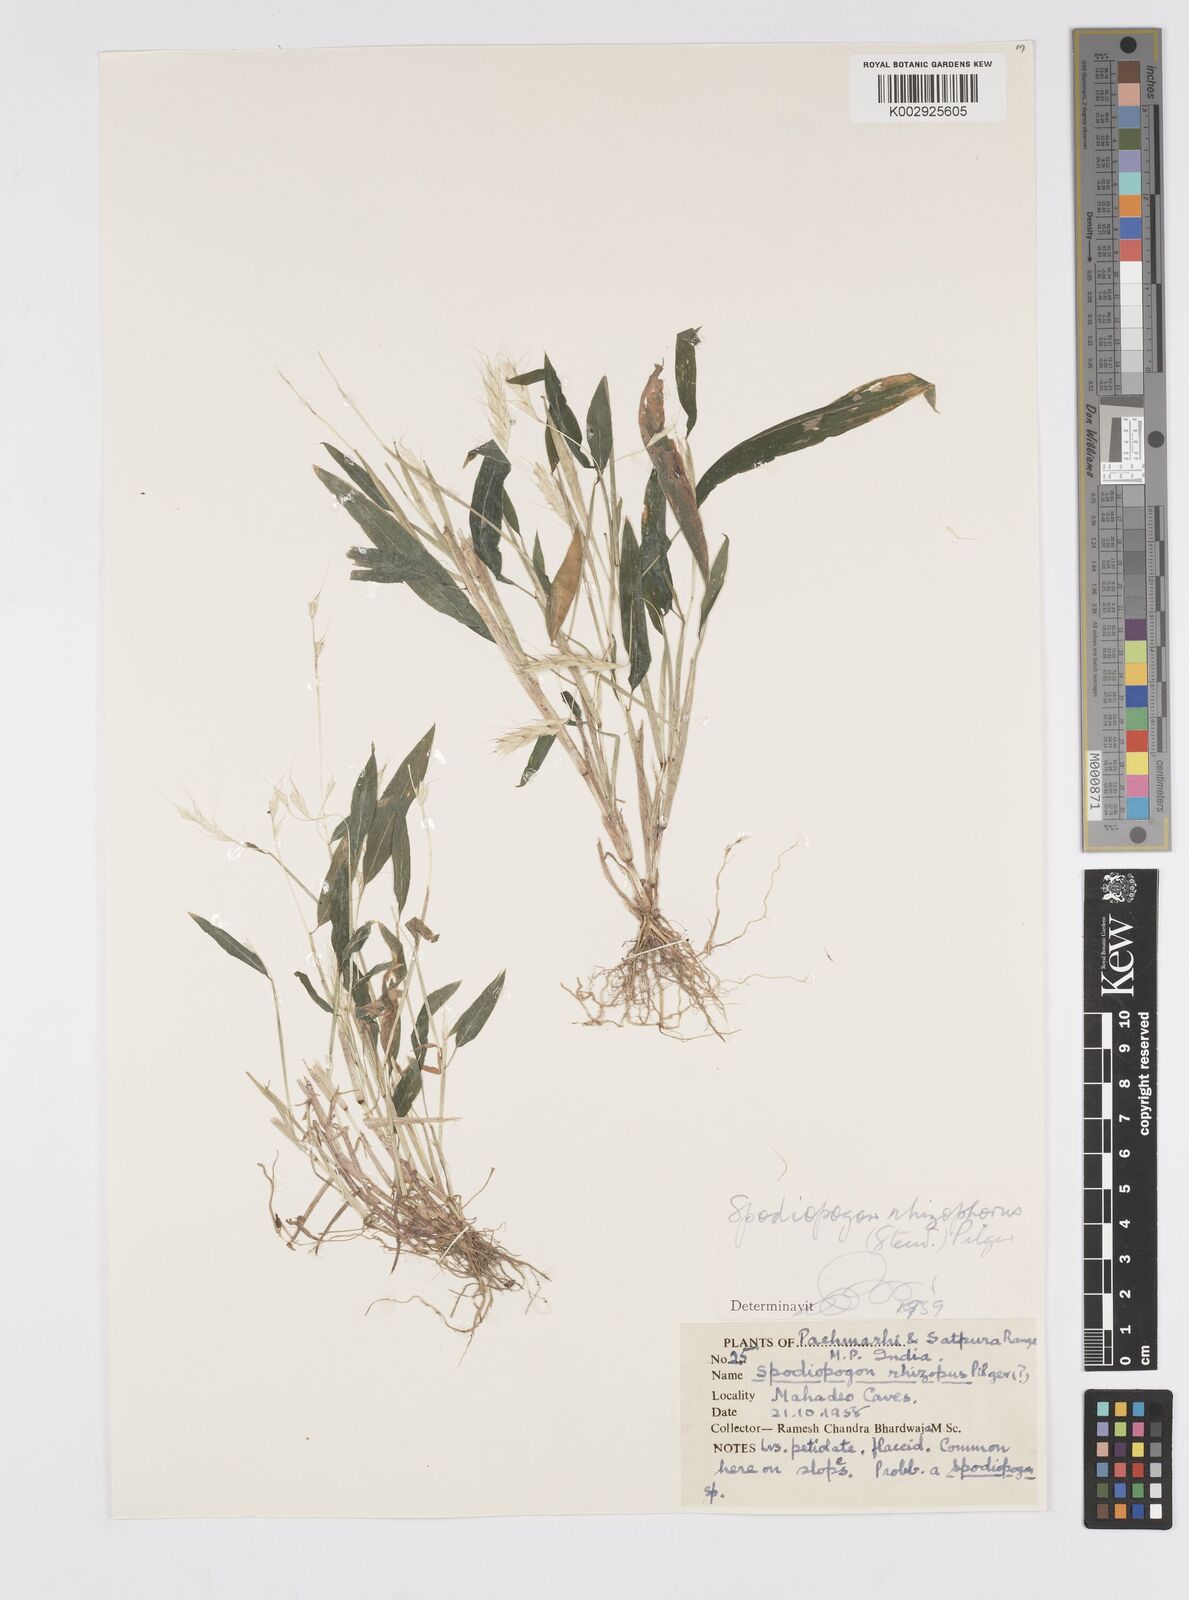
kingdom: Plantae
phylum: Tracheophyta
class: Liliopsida
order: Poales
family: Poaceae
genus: Spodiopogon
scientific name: Spodiopogon rhizophorus
